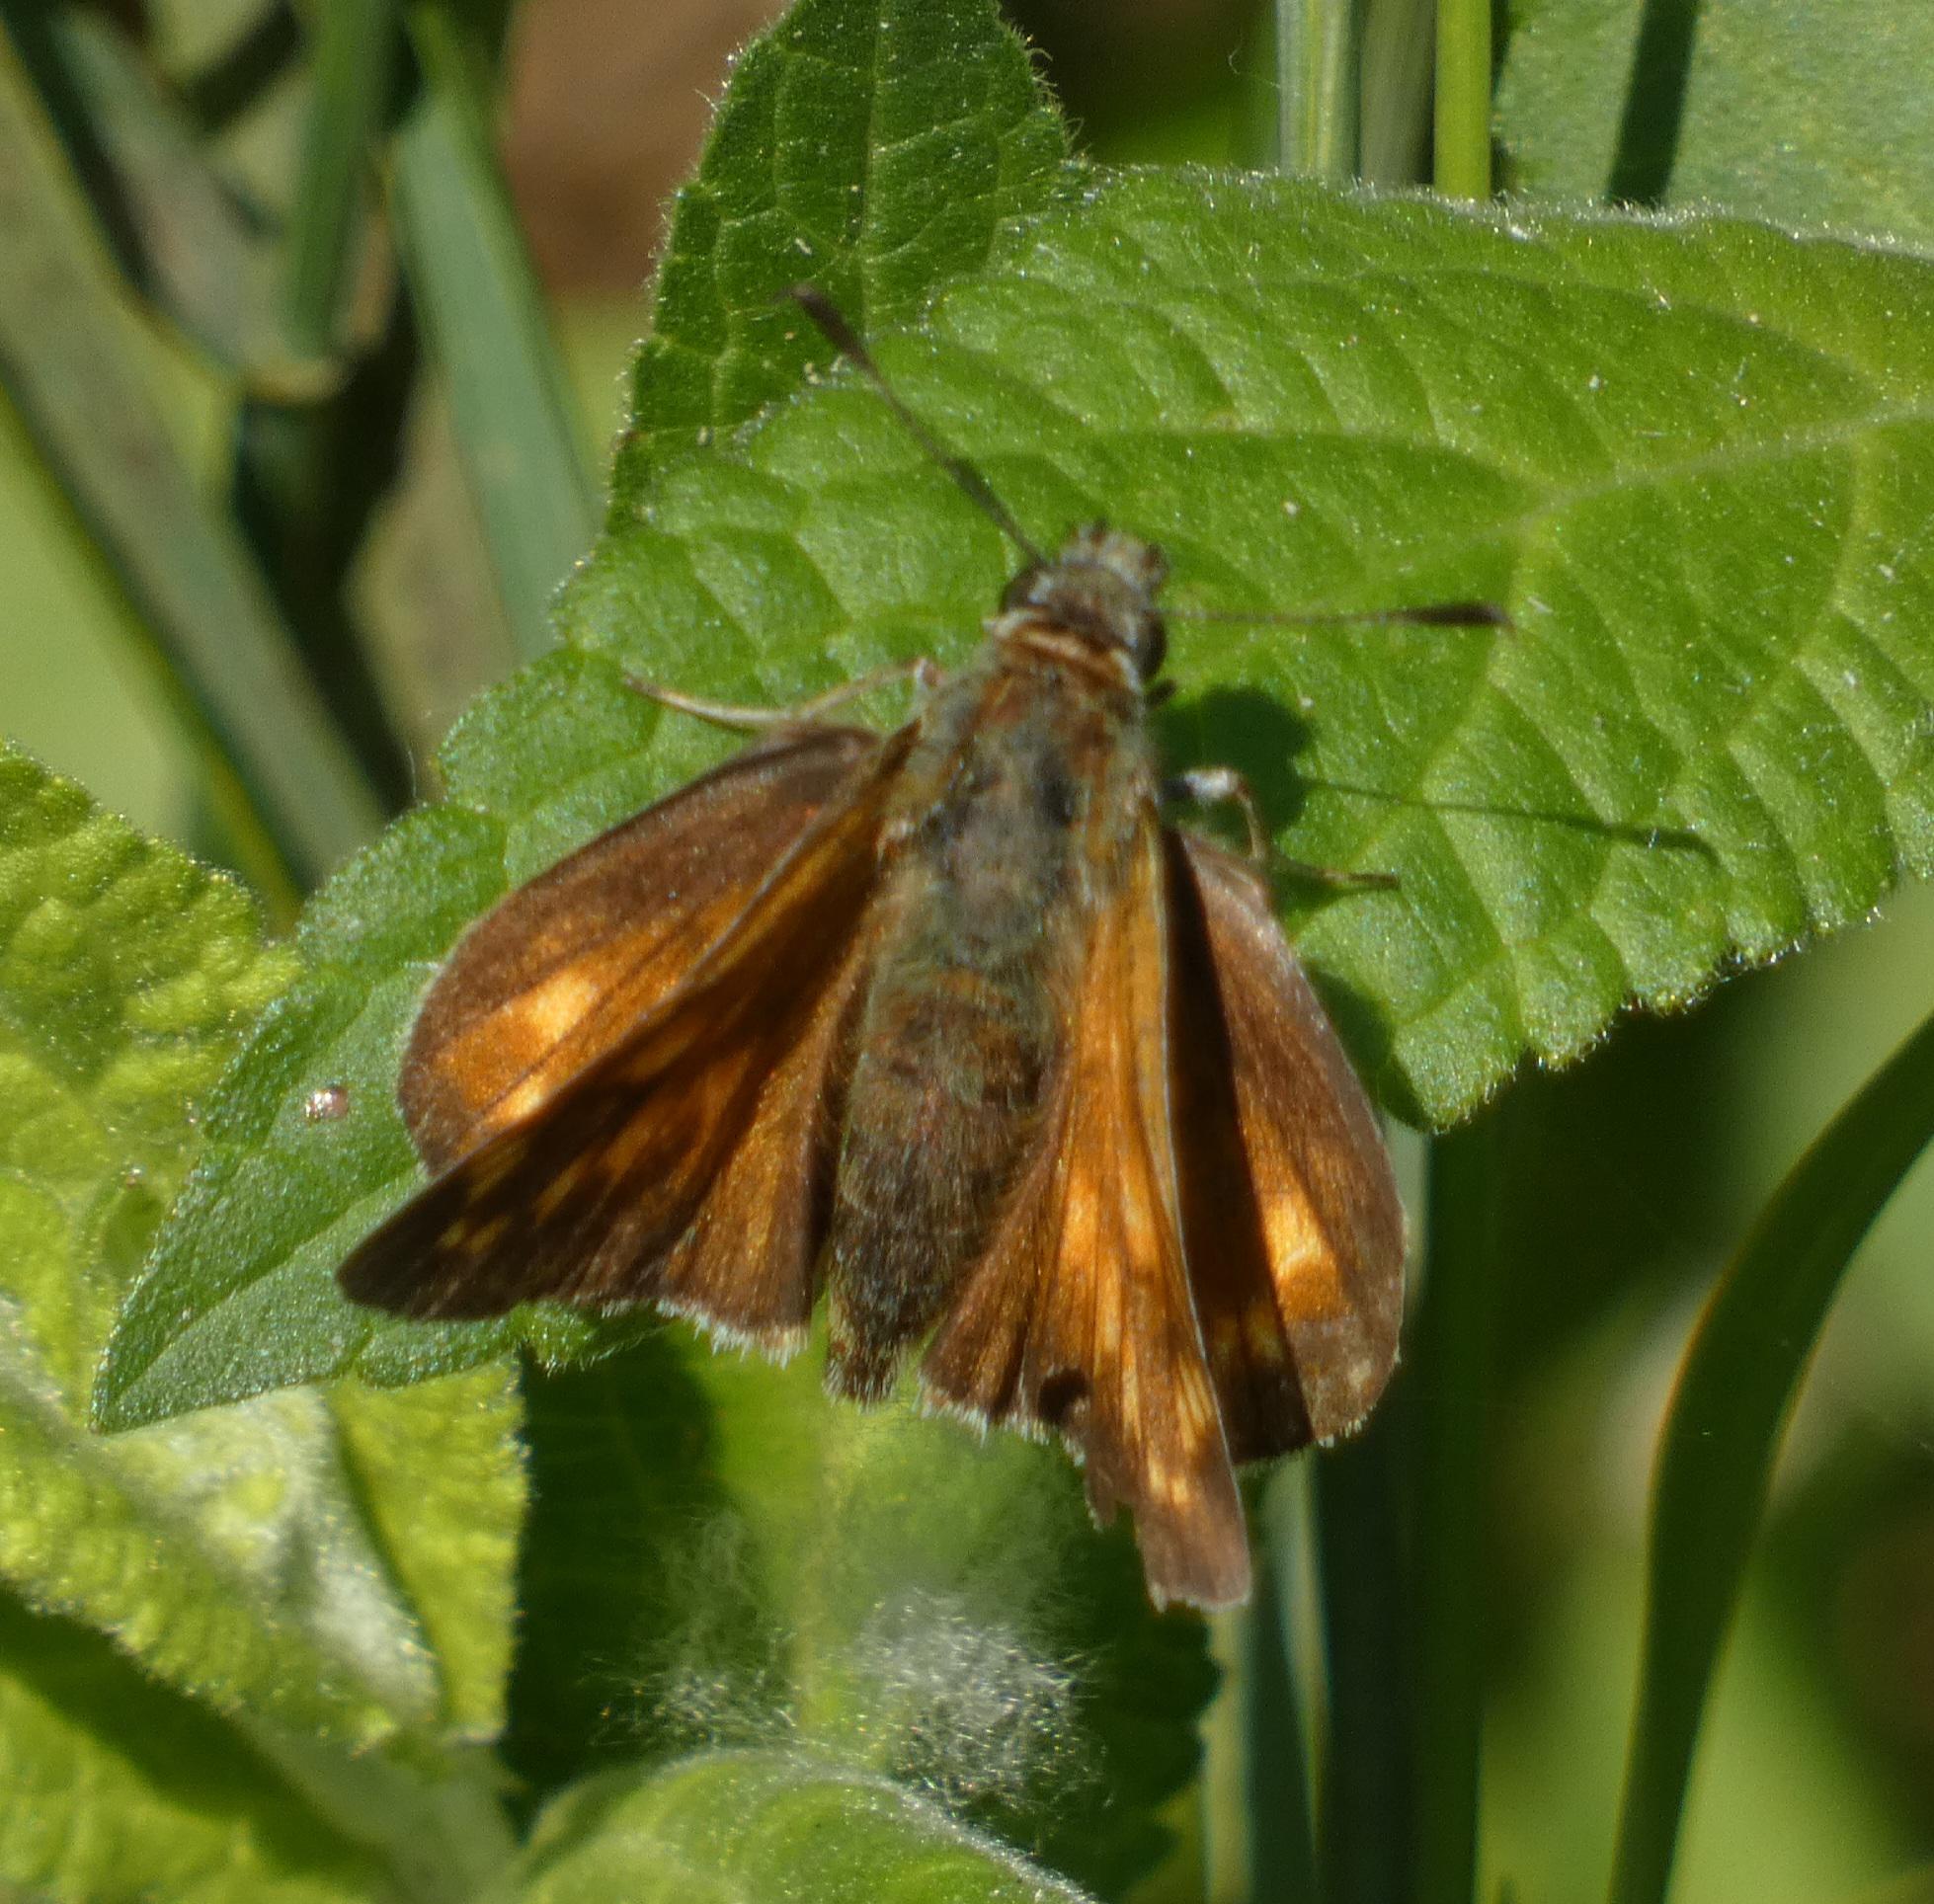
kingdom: Animalia
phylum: Arthropoda
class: Insecta
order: Lepidoptera
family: Hesperiidae
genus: Ochlodes
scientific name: Ochlodes venata
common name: Stor bredpande
